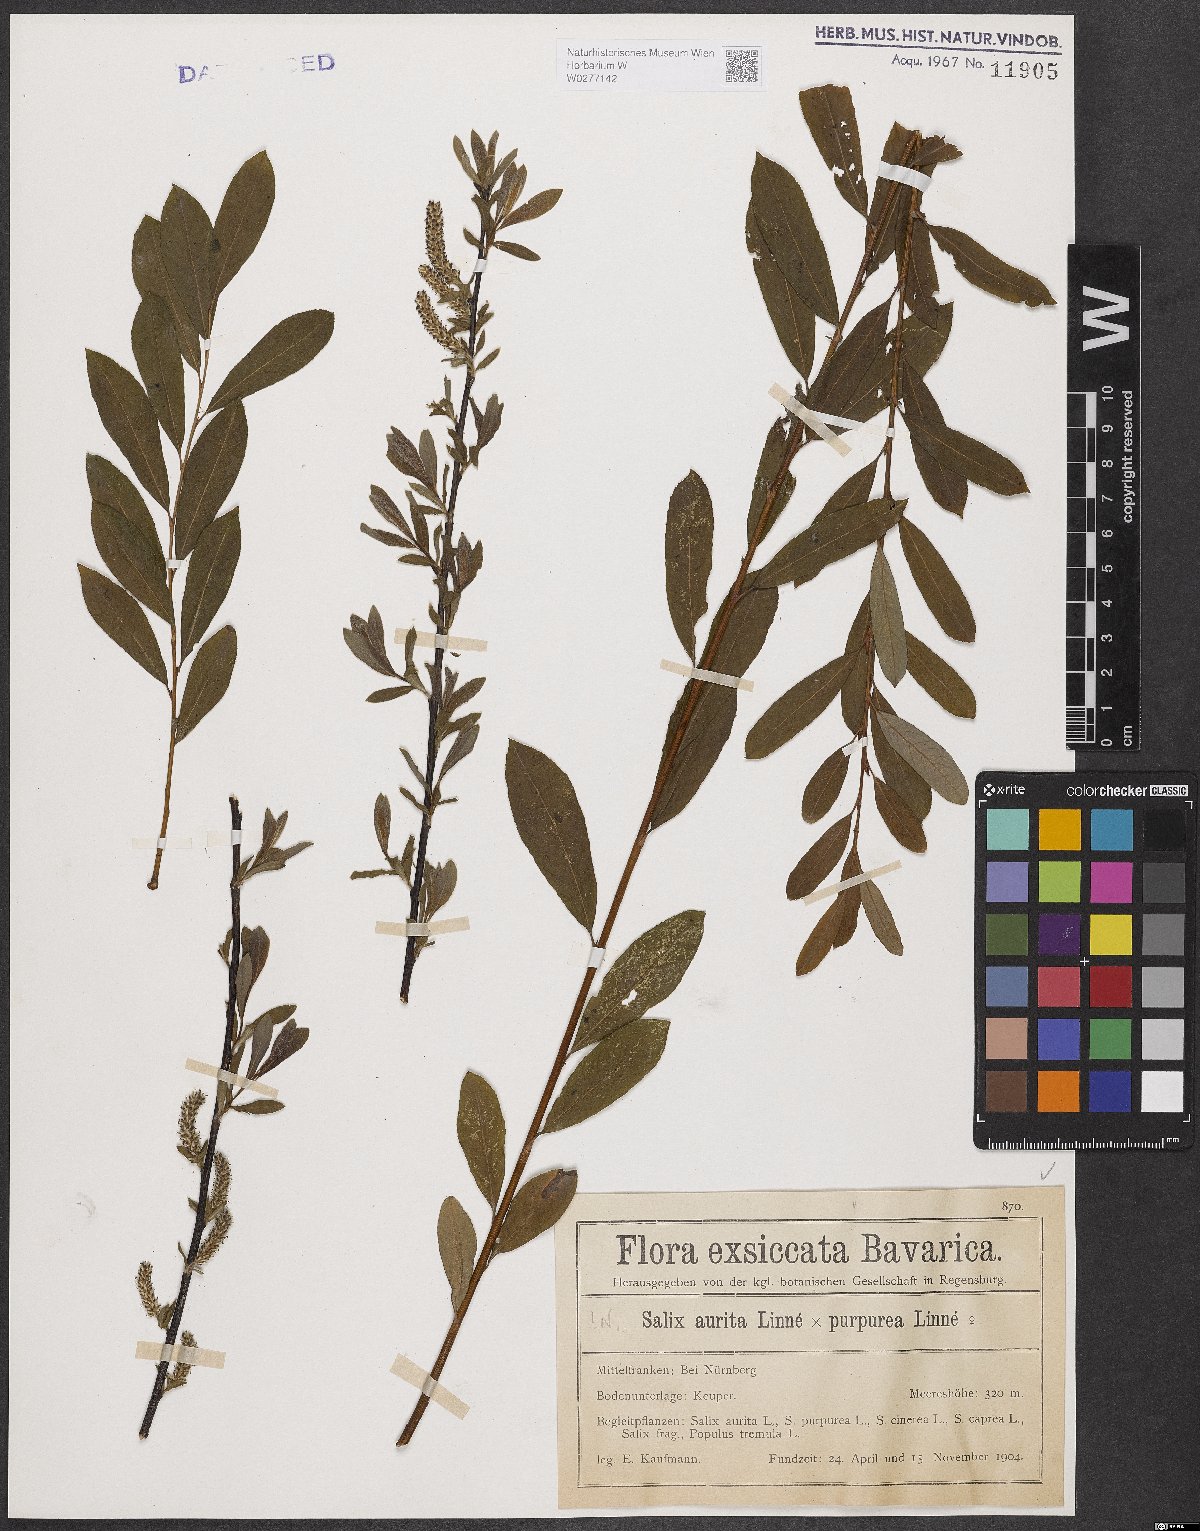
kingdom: Plantae
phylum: Tracheophyta
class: Magnoliopsida
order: Malpighiales
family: Salicaceae
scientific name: Salicaceae
